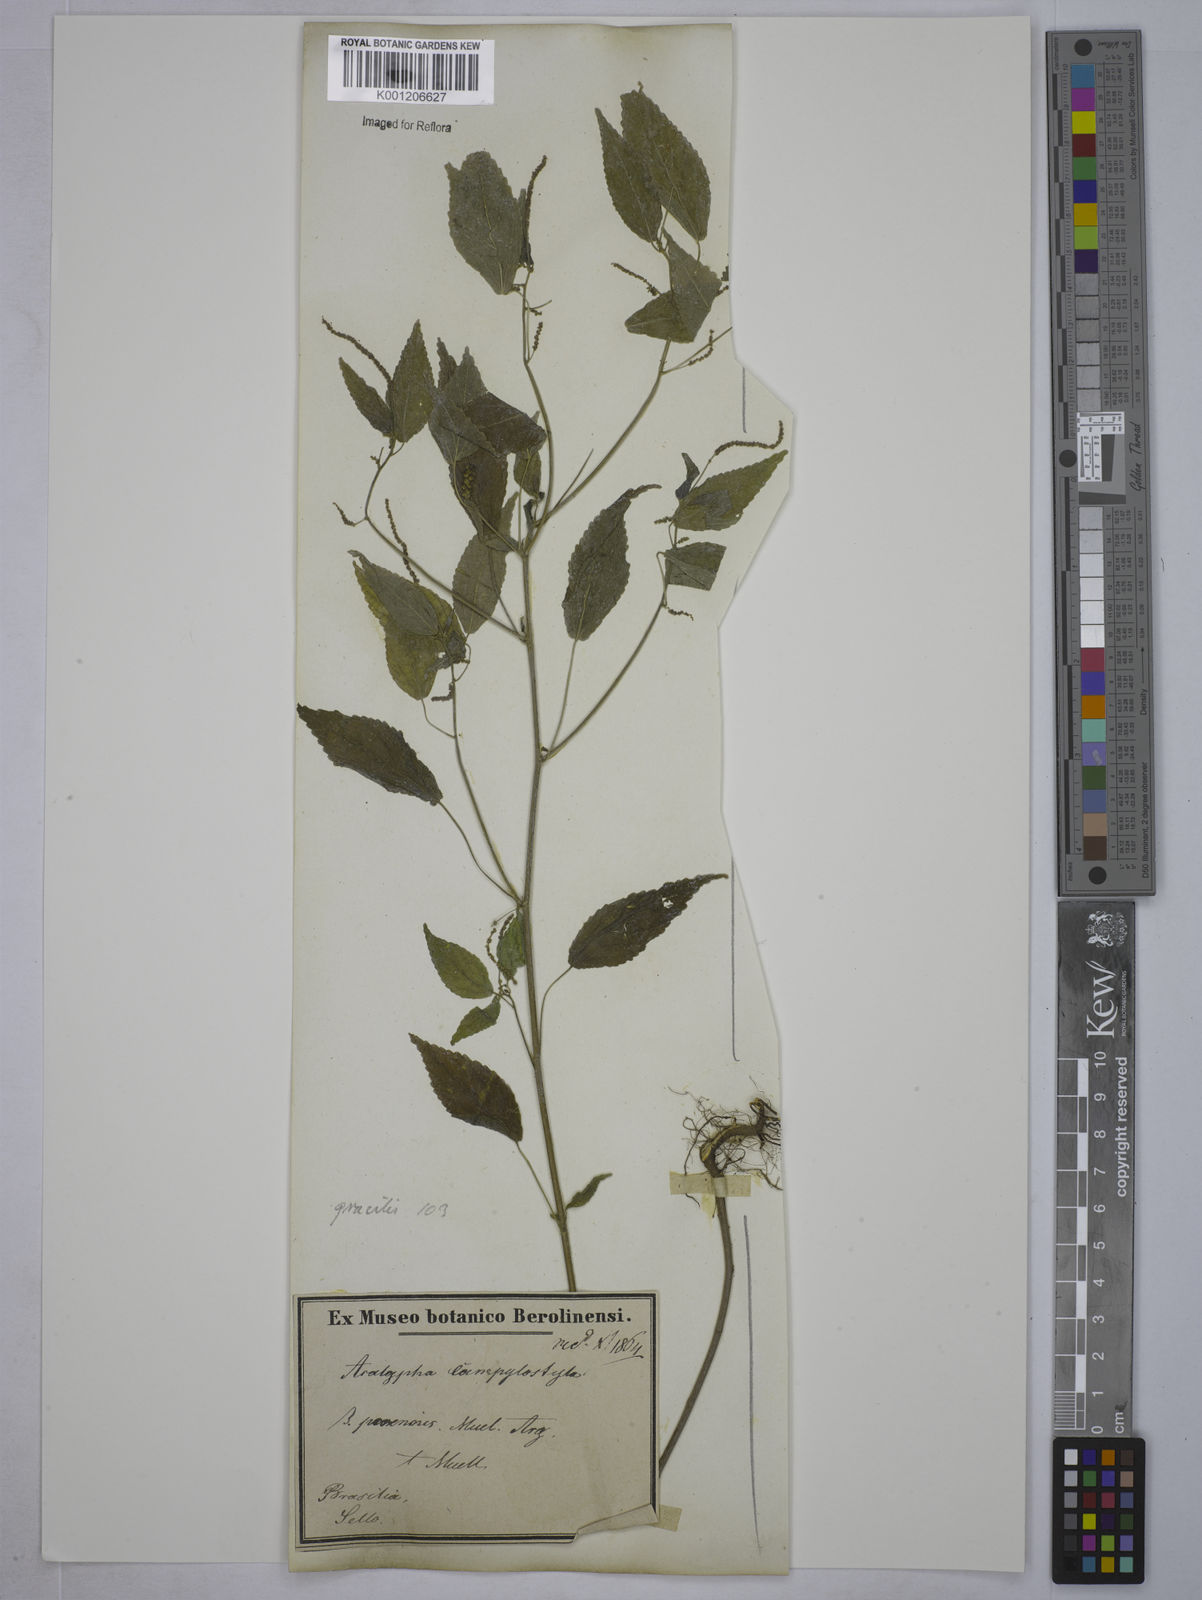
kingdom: Plantae
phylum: Tracheophyta
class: Magnoliopsida
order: Malpighiales
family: Euphorbiaceae
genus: Acalypha
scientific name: Acalypha gracilis
